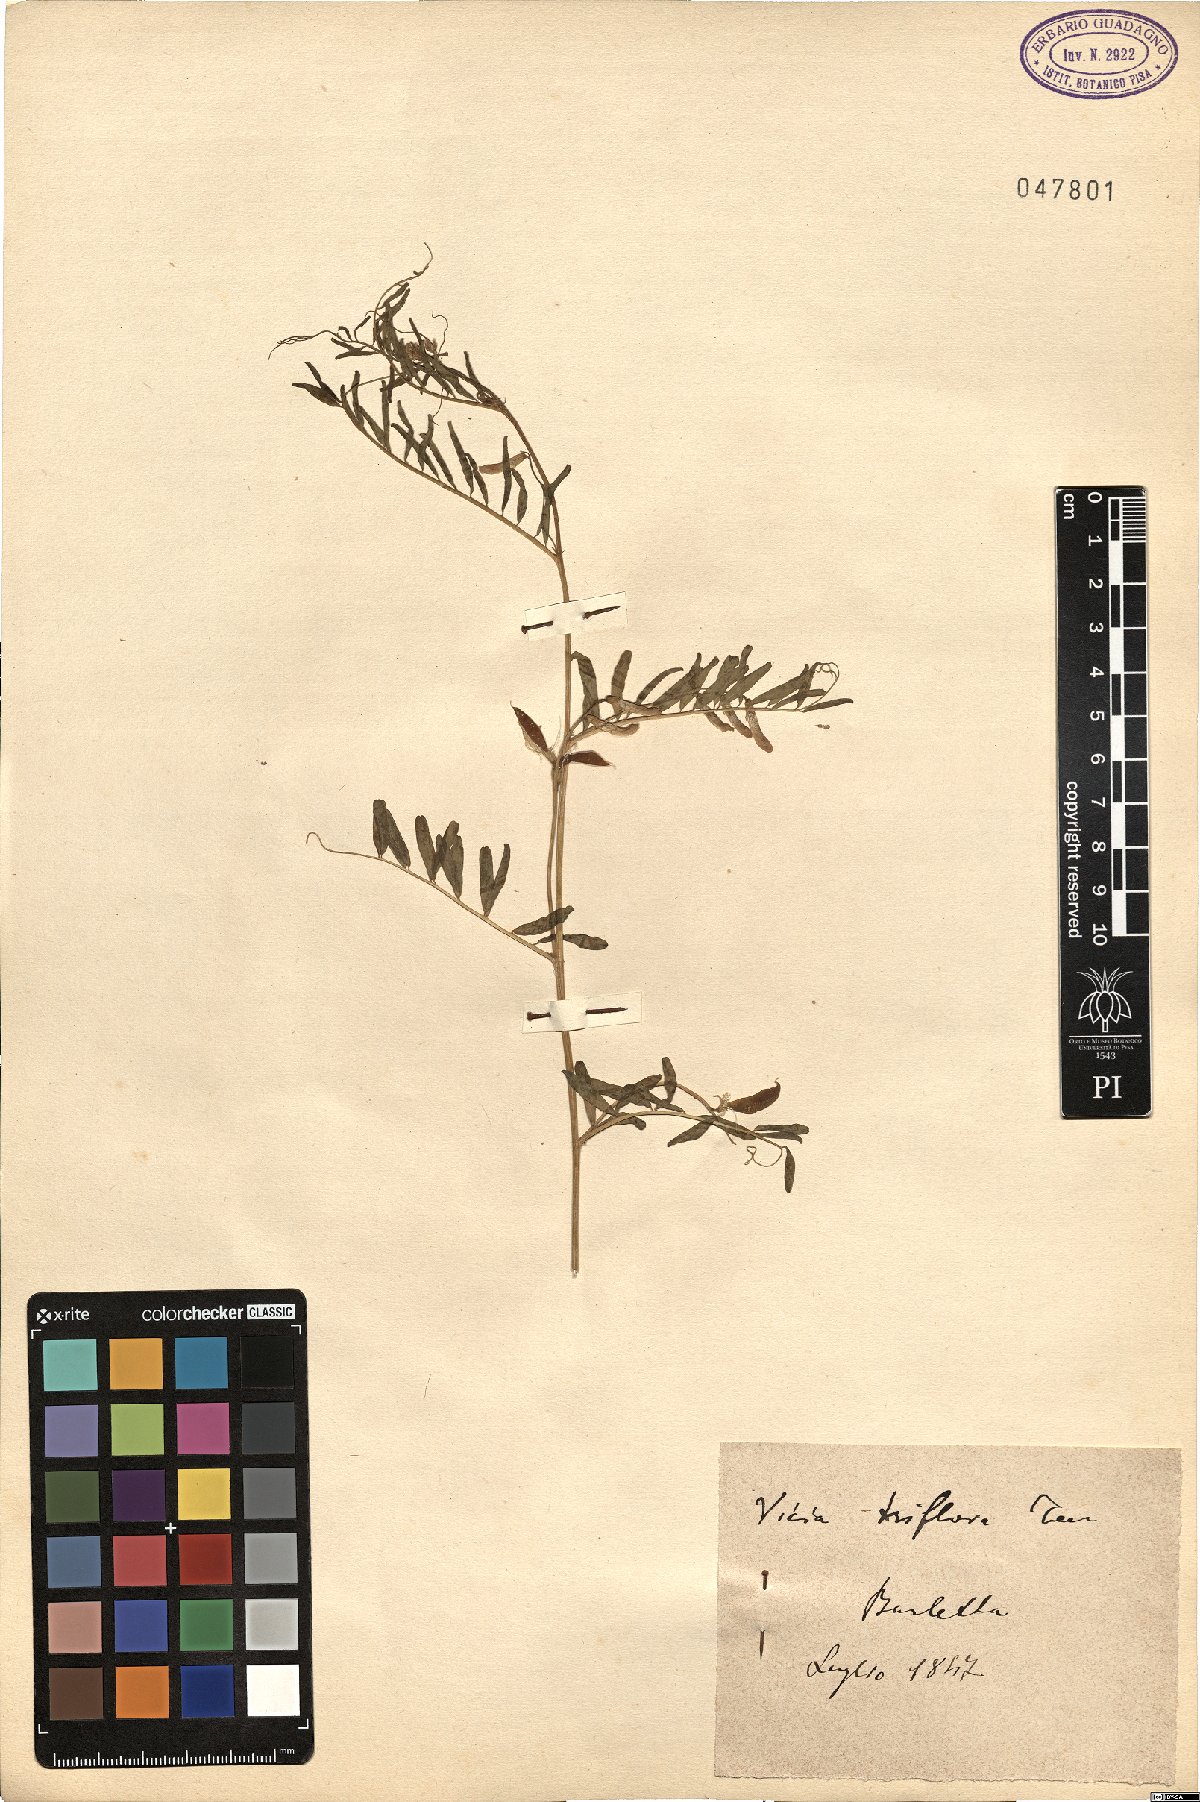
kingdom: Plantae
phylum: Tracheophyta
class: Magnoliopsida
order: Fabales
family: Fabaceae
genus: Vicia
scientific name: Vicia monantha
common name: Barn vetch
